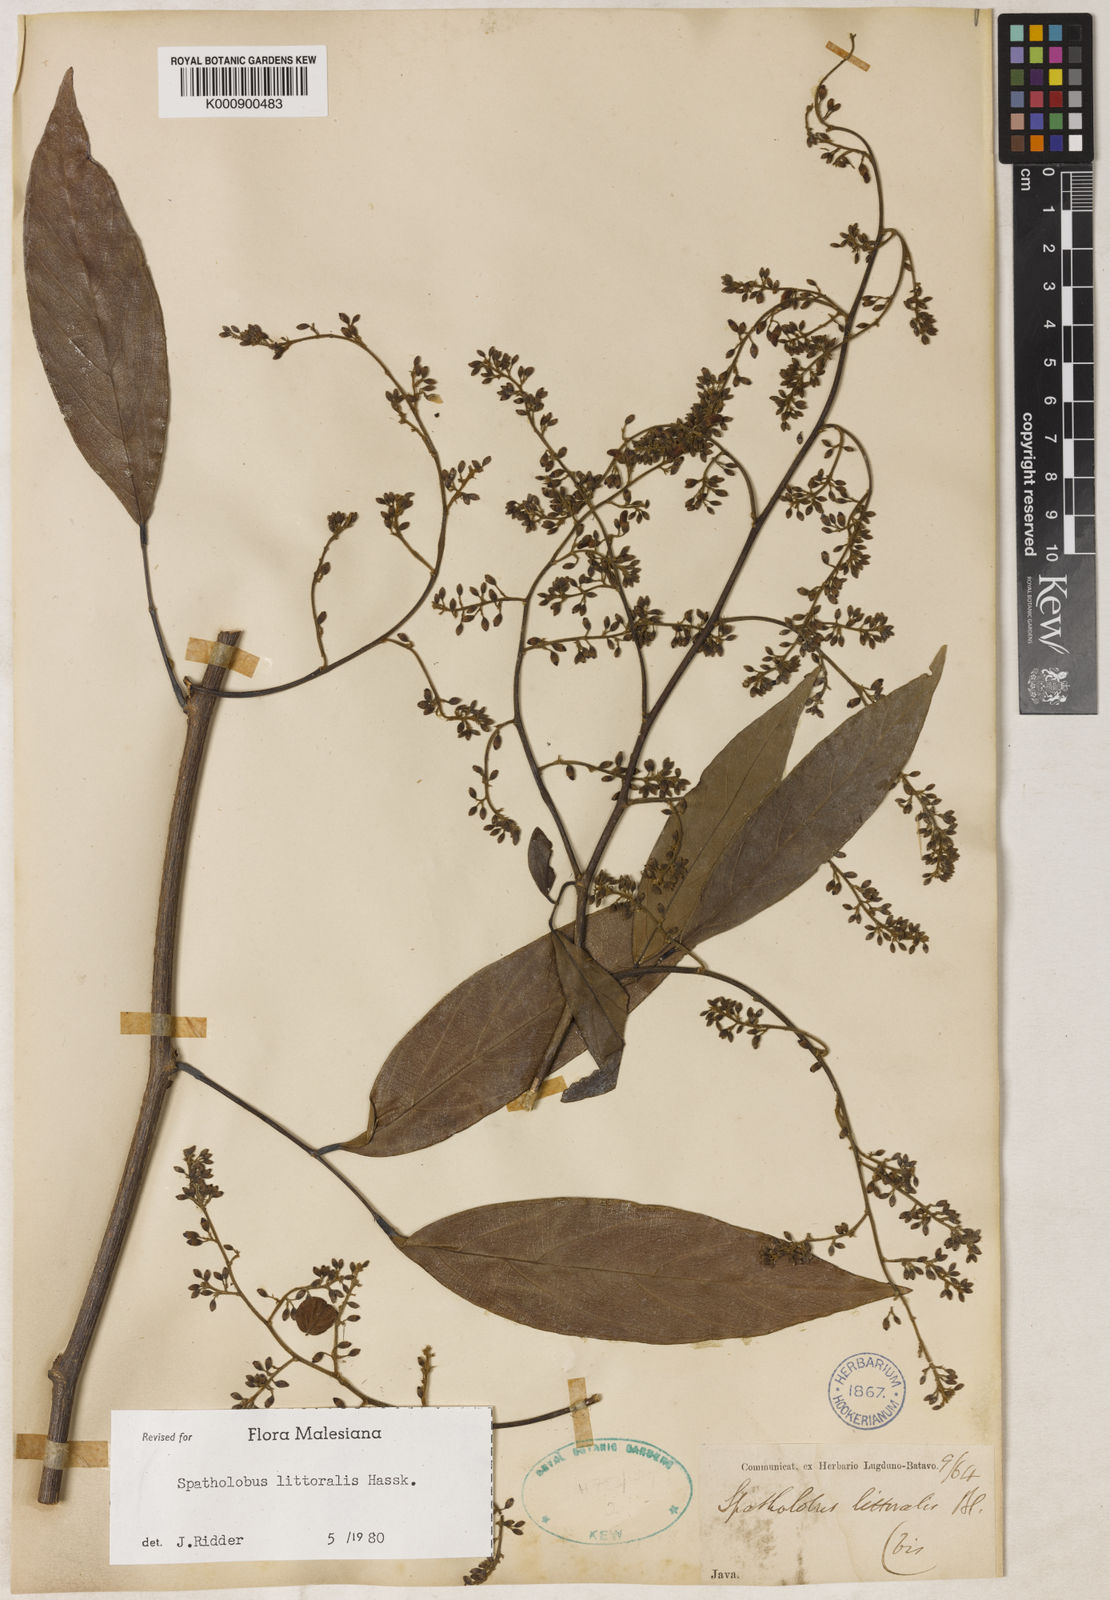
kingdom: Plantae
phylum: Tracheophyta
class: Magnoliopsida
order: Fabales
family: Fabaceae
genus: Spatholobus
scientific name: Spatholobus littoralis
